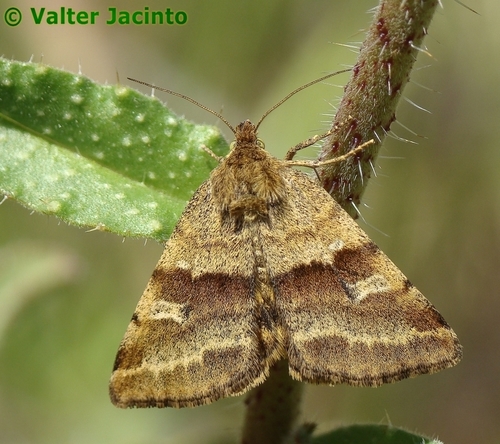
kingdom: Animalia
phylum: Arthropoda
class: Insecta
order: Lepidoptera
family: Noctuidae
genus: Synthymia
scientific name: Synthymia fixa
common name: Goldwing
